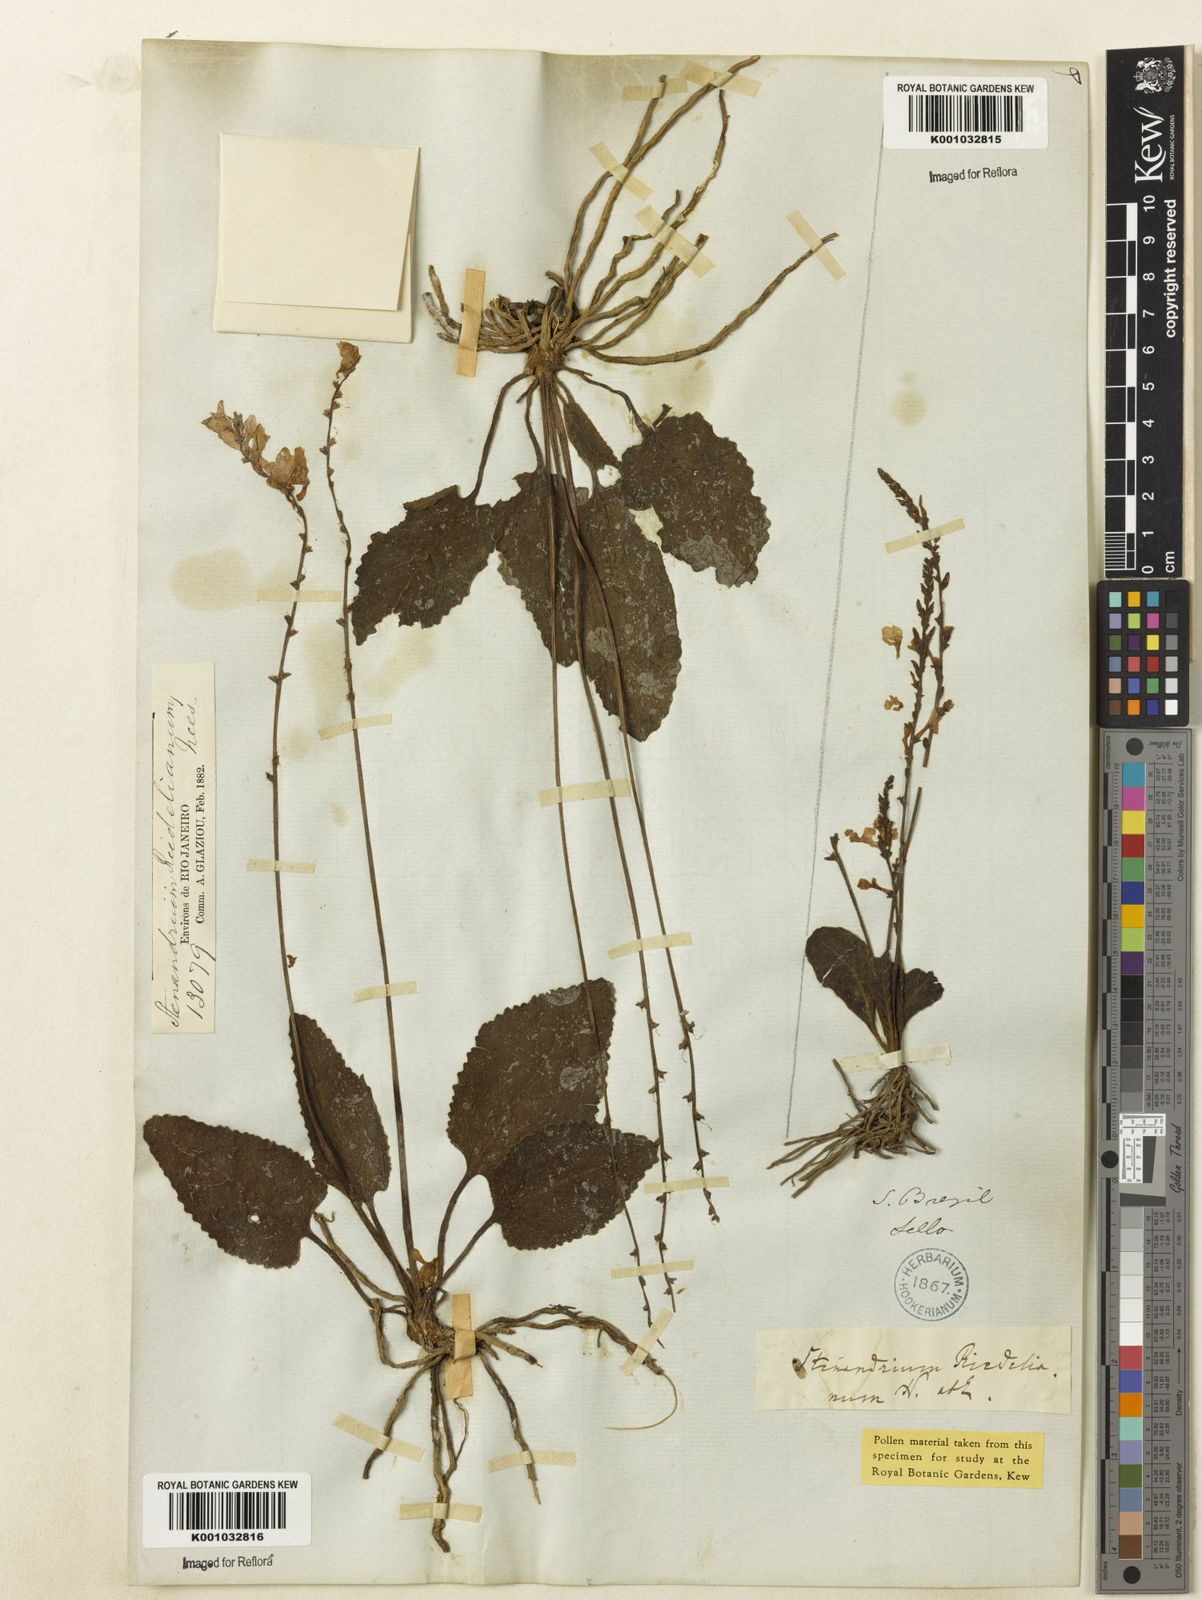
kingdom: Plantae
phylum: Tracheophyta
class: Magnoliopsida
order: Lamiales
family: Acanthaceae
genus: Stenandrium
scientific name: Stenandrium riedelianum
